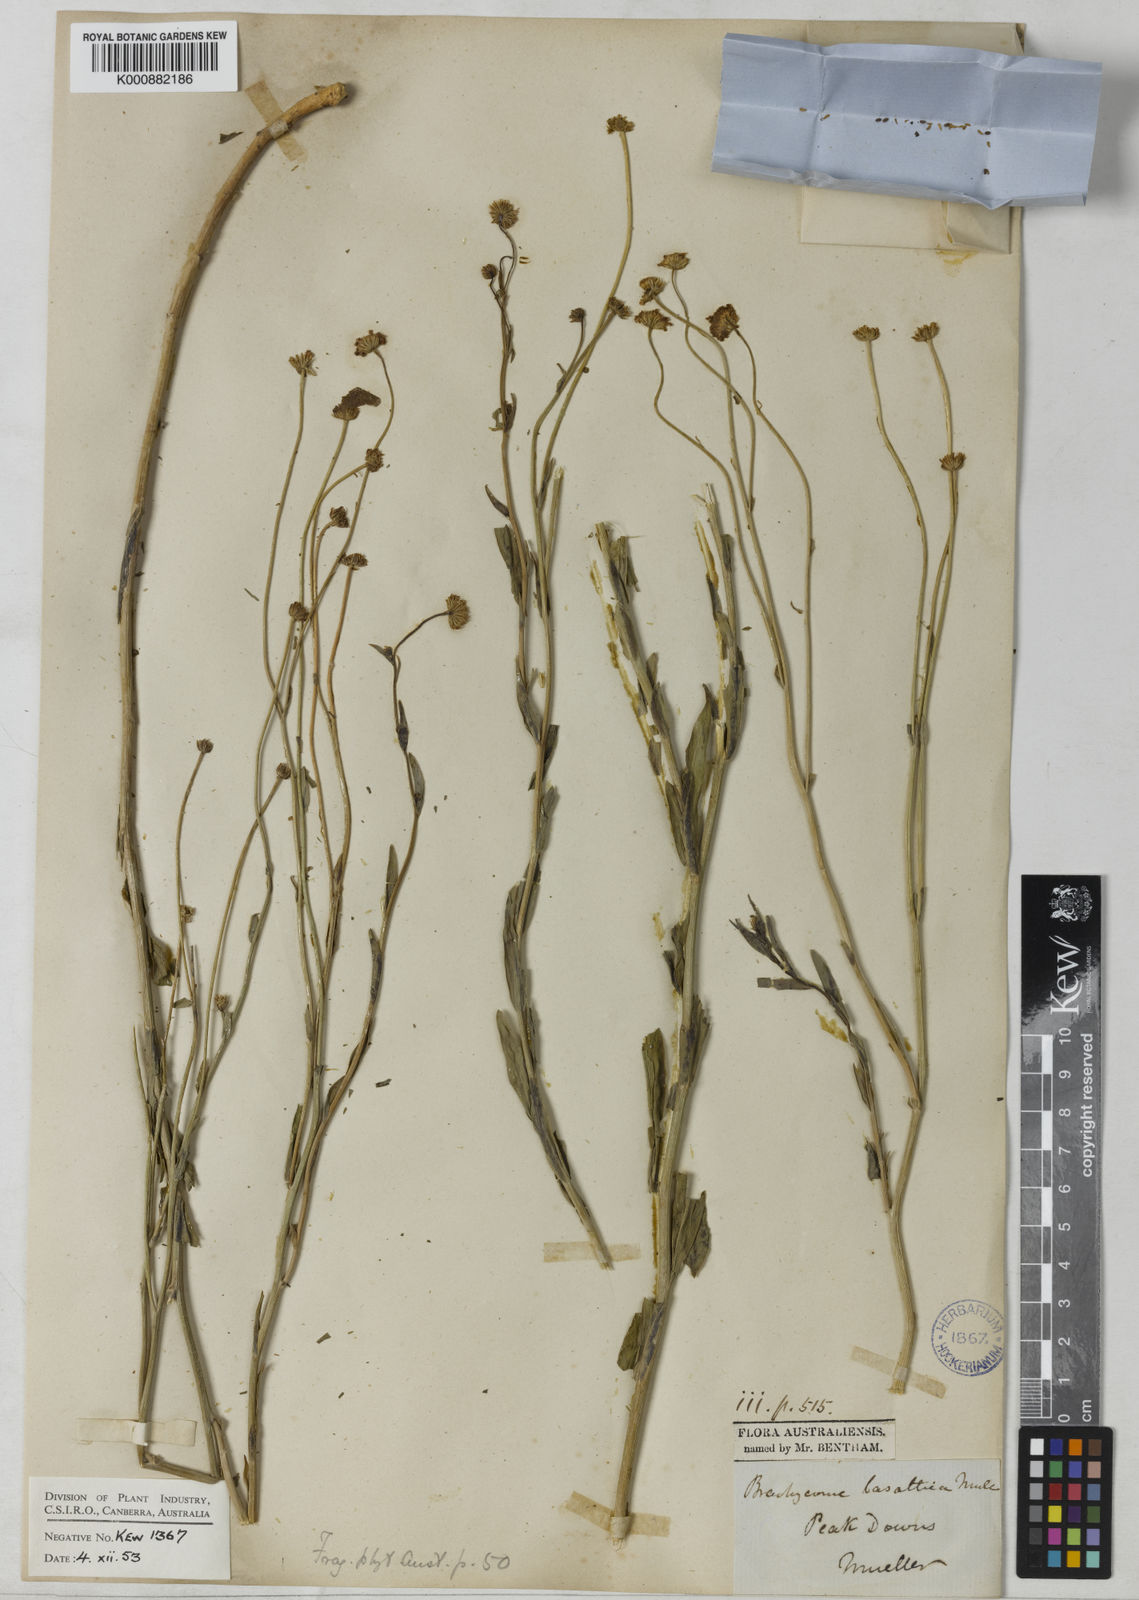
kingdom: Plantae
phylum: Tracheophyta
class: Magnoliopsida
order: Asterales
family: Asteraceae
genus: Brachyscome
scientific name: Brachyscome basaltica
